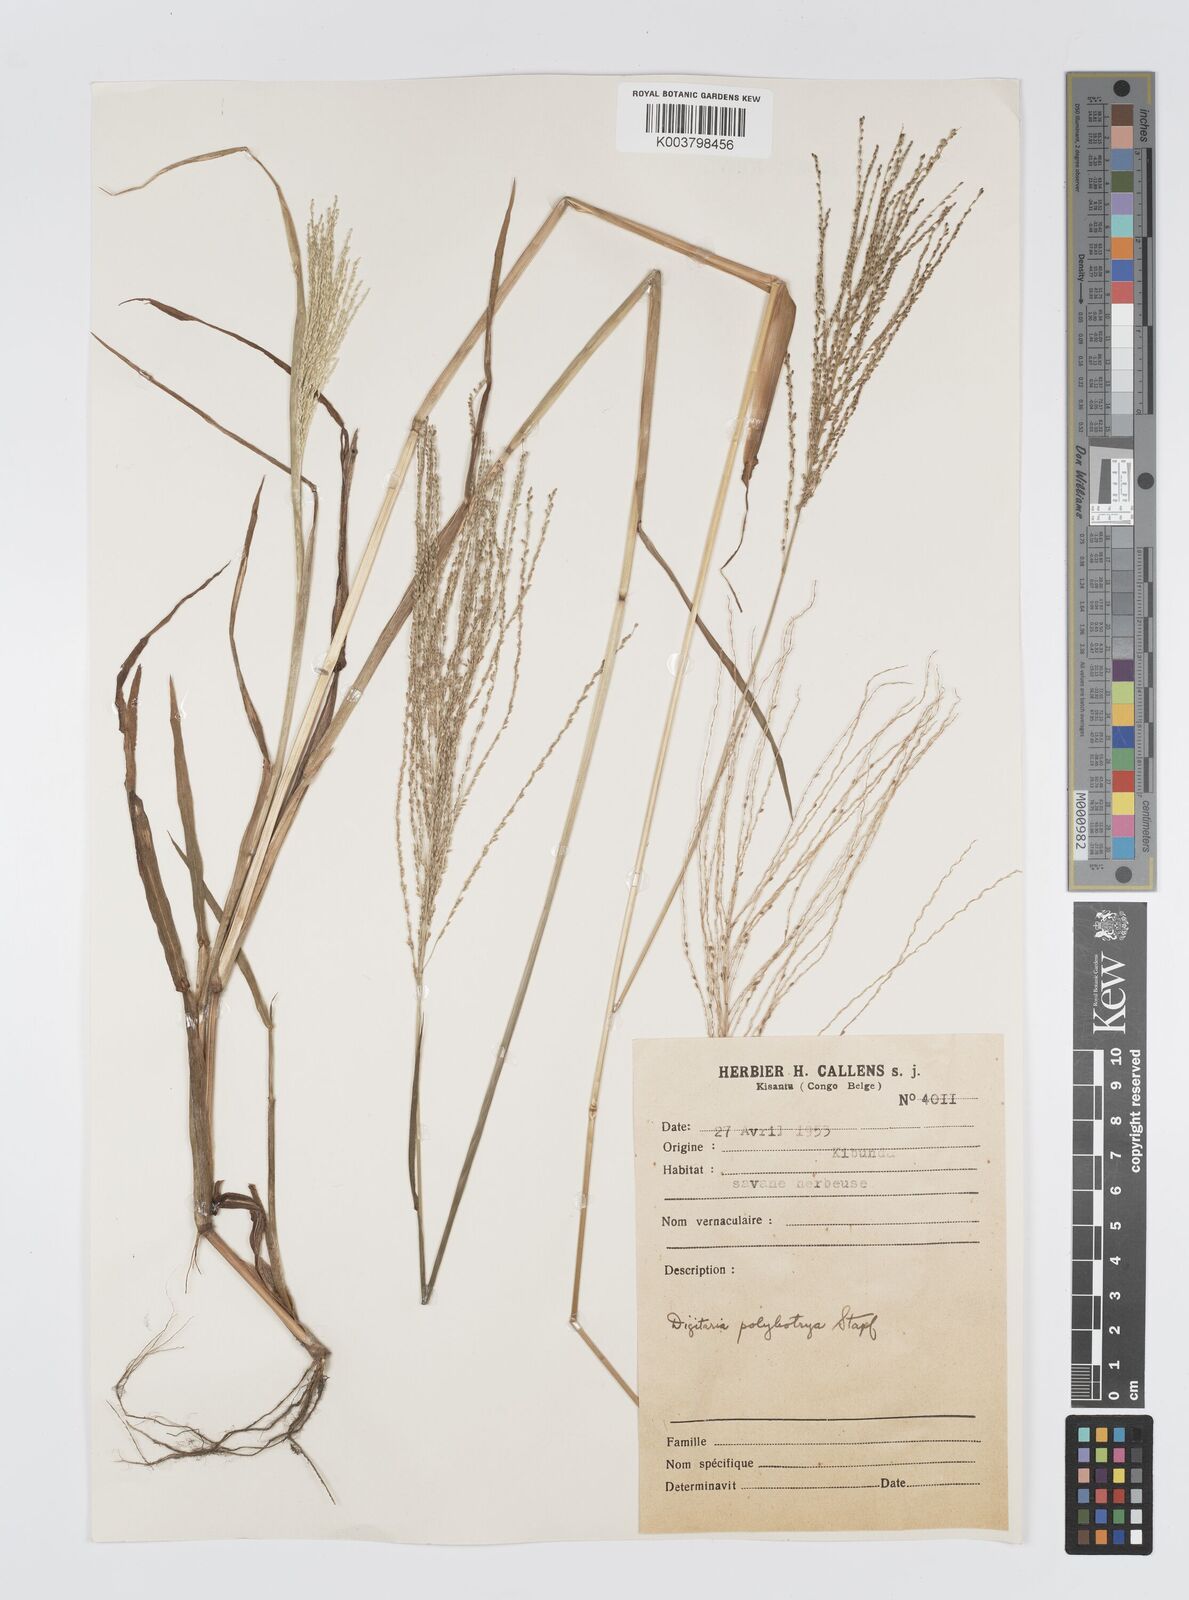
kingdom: Plantae
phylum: Tracheophyta
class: Liliopsida
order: Poales
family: Poaceae
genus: Digitaria
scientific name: Digitaria leptorhachis
